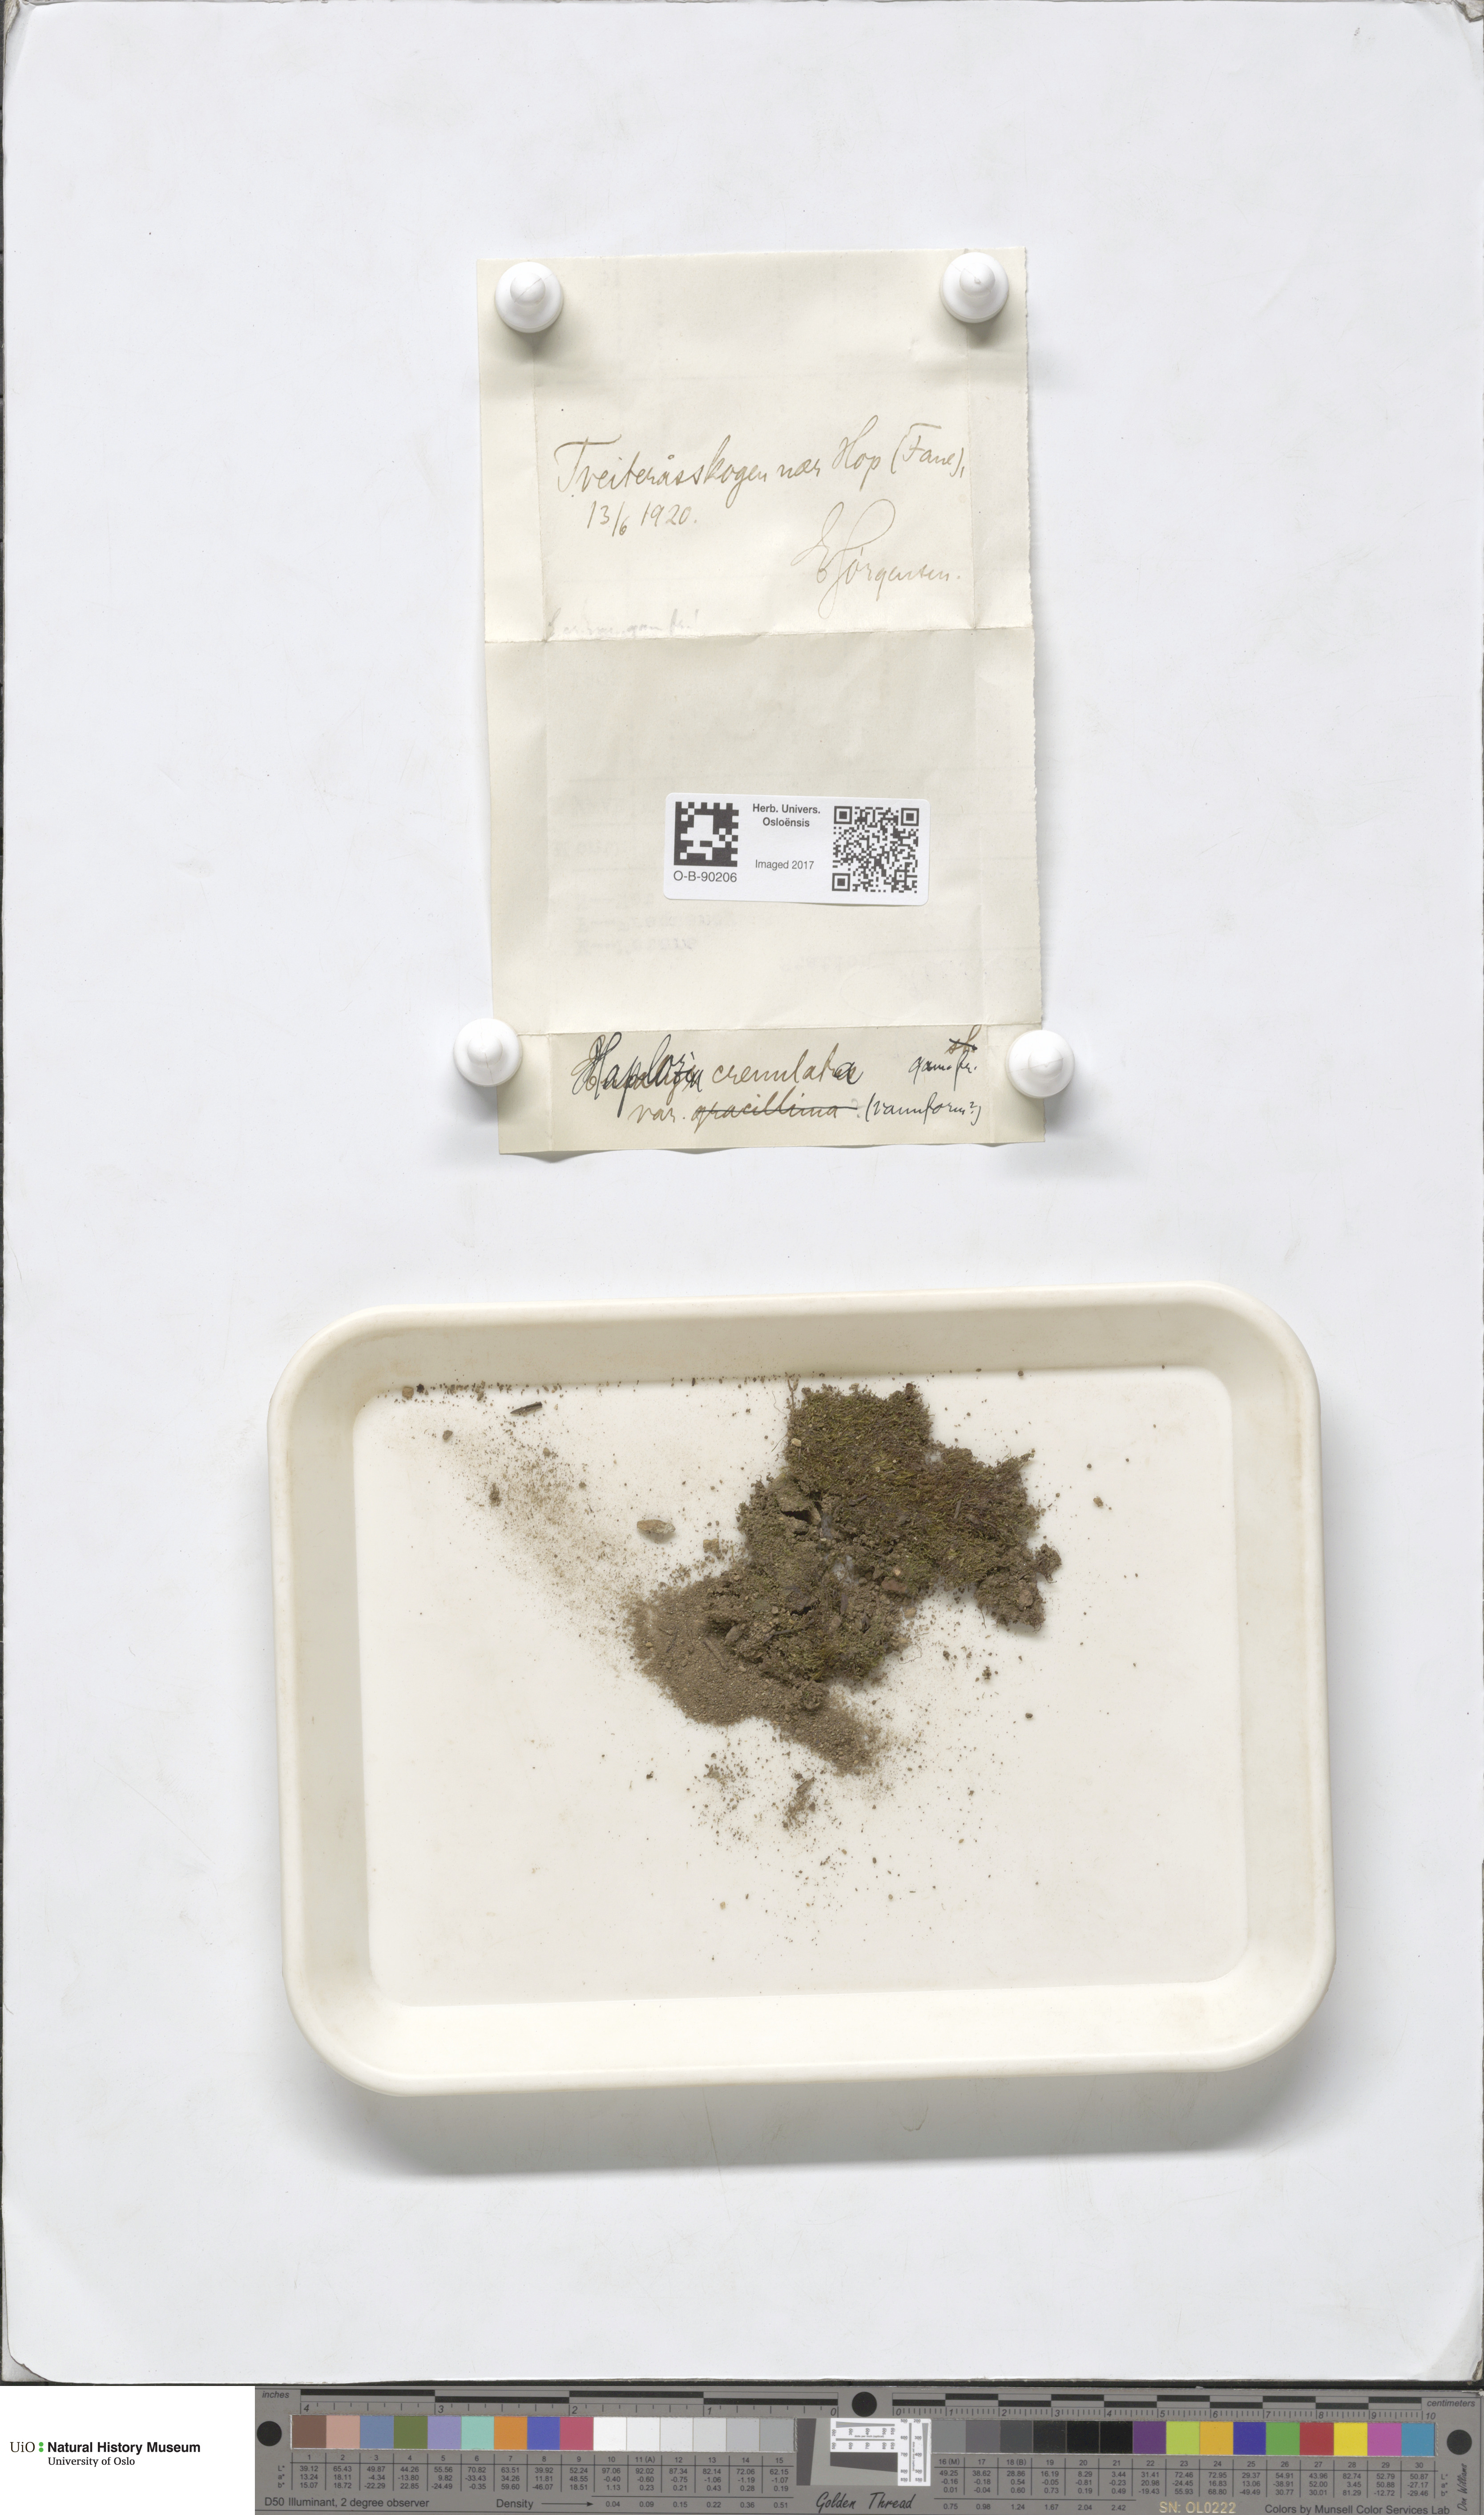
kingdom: Plantae
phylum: Marchantiophyta
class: Jungermanniopsida
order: Jungermanniales
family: Solenostomataceae
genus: Solenostoma
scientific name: Solenostoma gracillimum
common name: Crenulated flapwort
